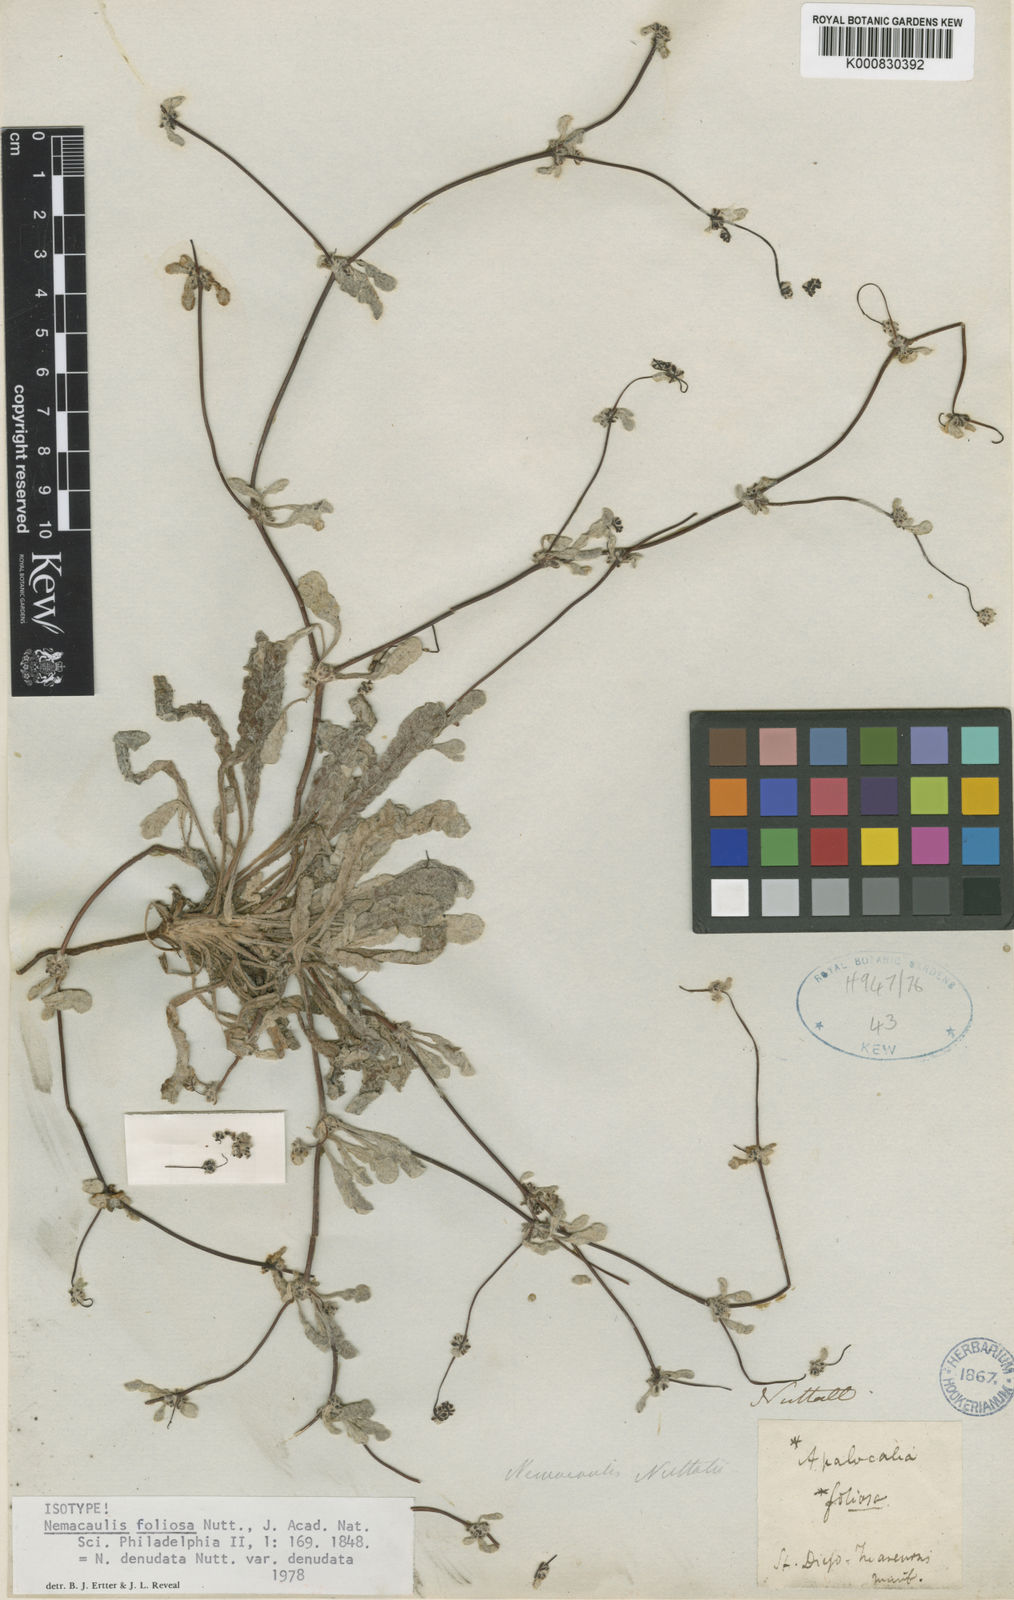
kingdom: Plantae
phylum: Tracheophyta
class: Magnoliopsida
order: Caryophyllales
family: Polygonaceae
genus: Nemacaulis
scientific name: Nemacaulis denudata
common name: Woolly-heads
